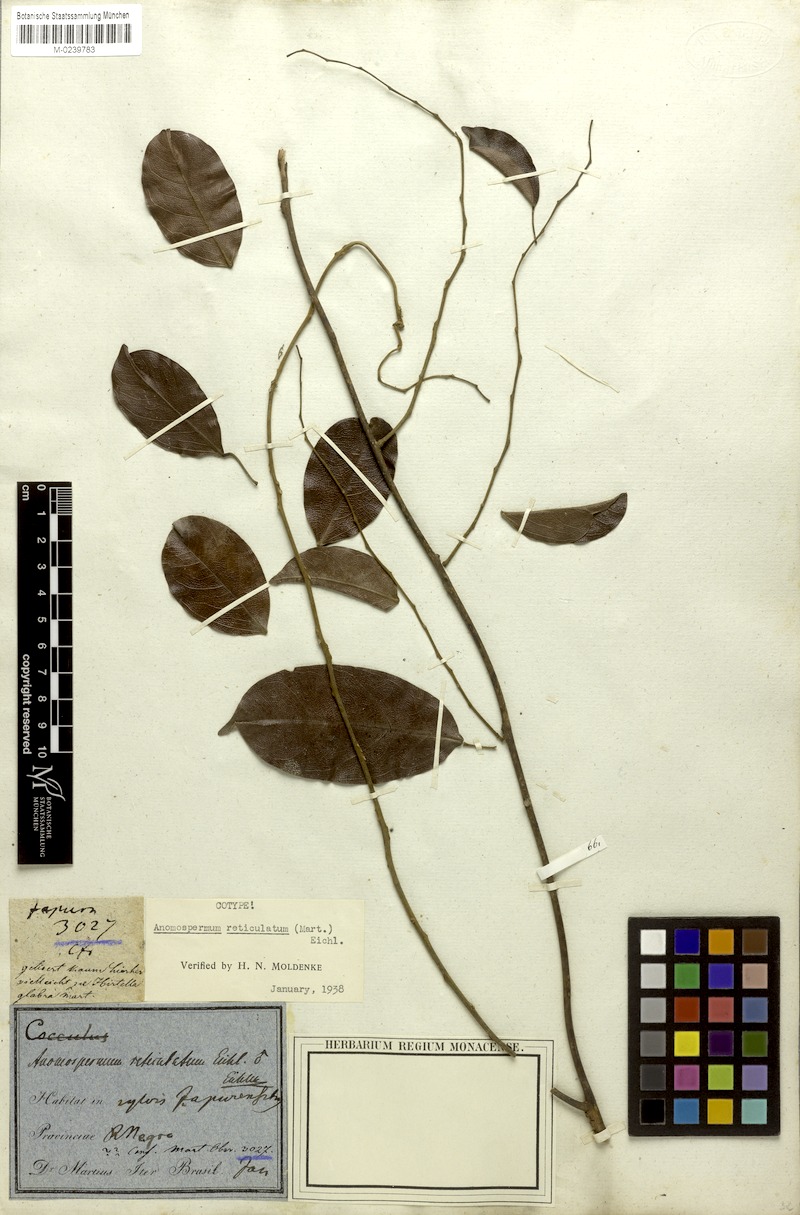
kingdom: Plantae
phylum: Tracheophyta
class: Magnoliopsida
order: Ranunculales
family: Menispermaceae
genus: Anomospermum
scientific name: Anomospermum reticulatum
